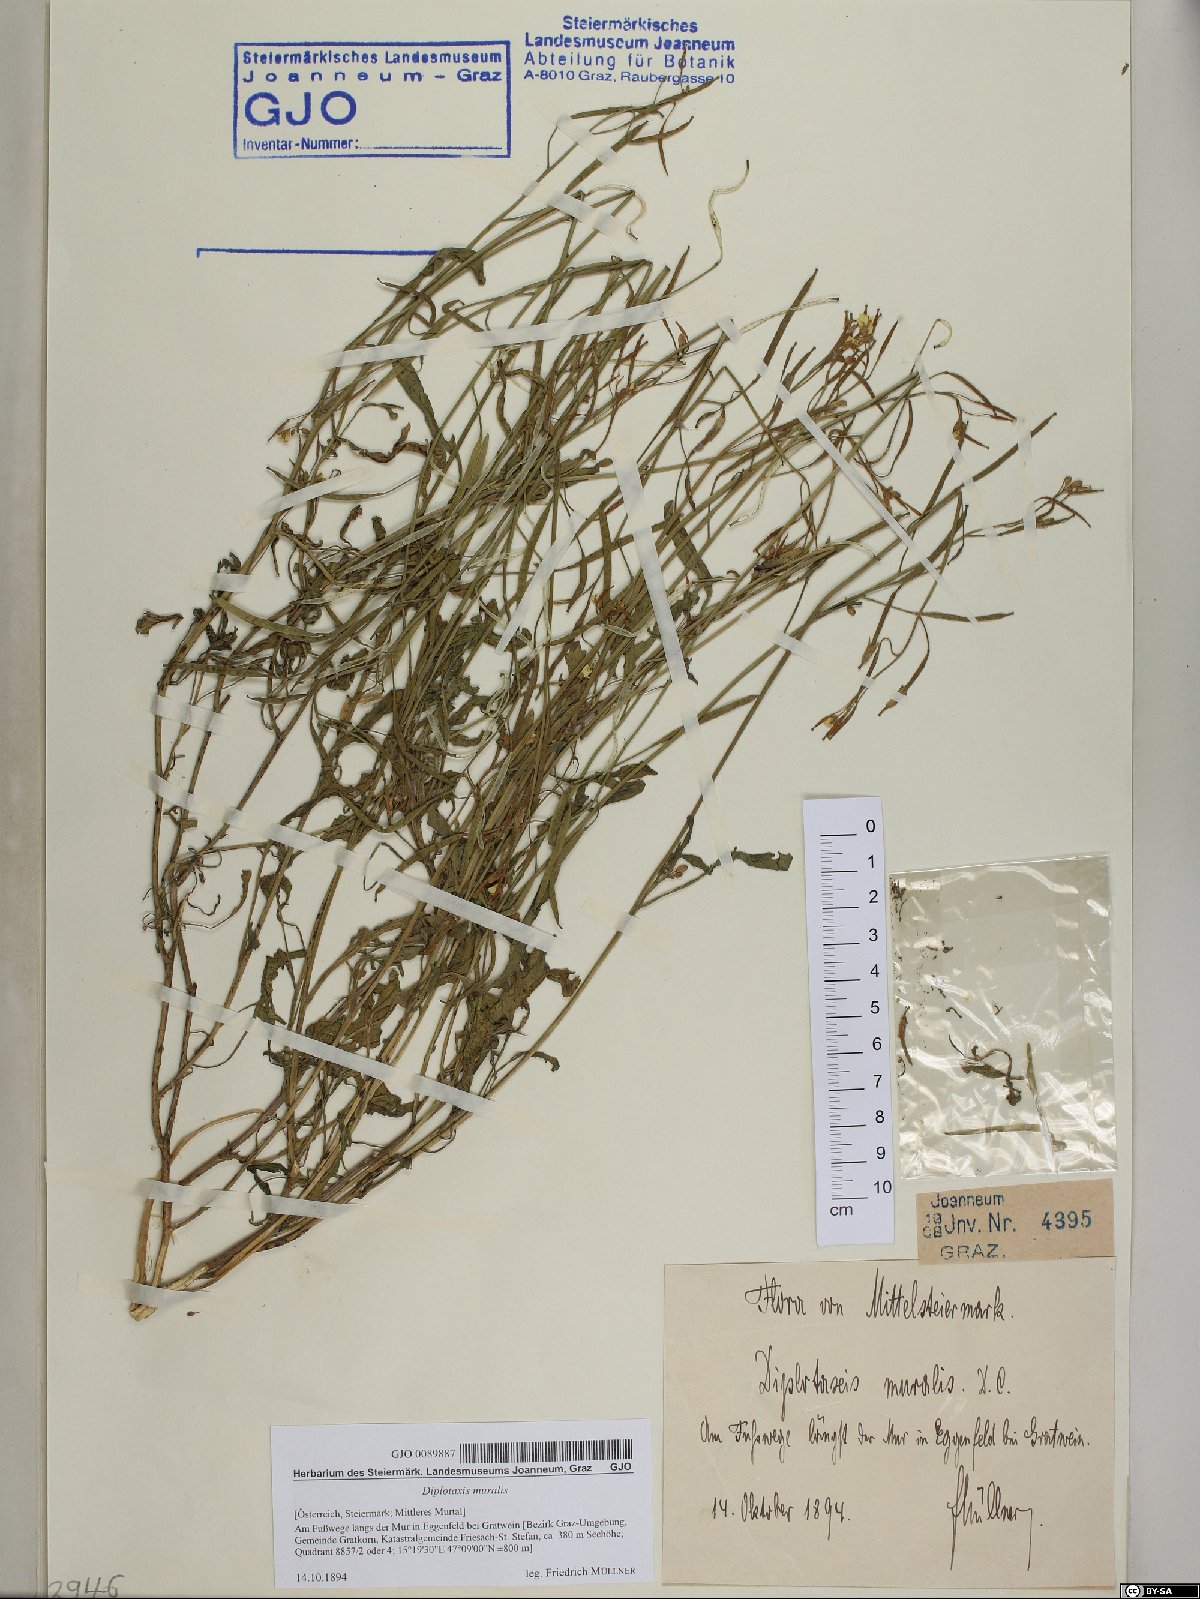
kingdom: Plantae
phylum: Tracheophyta
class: Magnoliopsida
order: Brassicales
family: Brassicaceae
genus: Diplotaxis
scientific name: Diplotaxis muralis
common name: Annual wall-rocket
